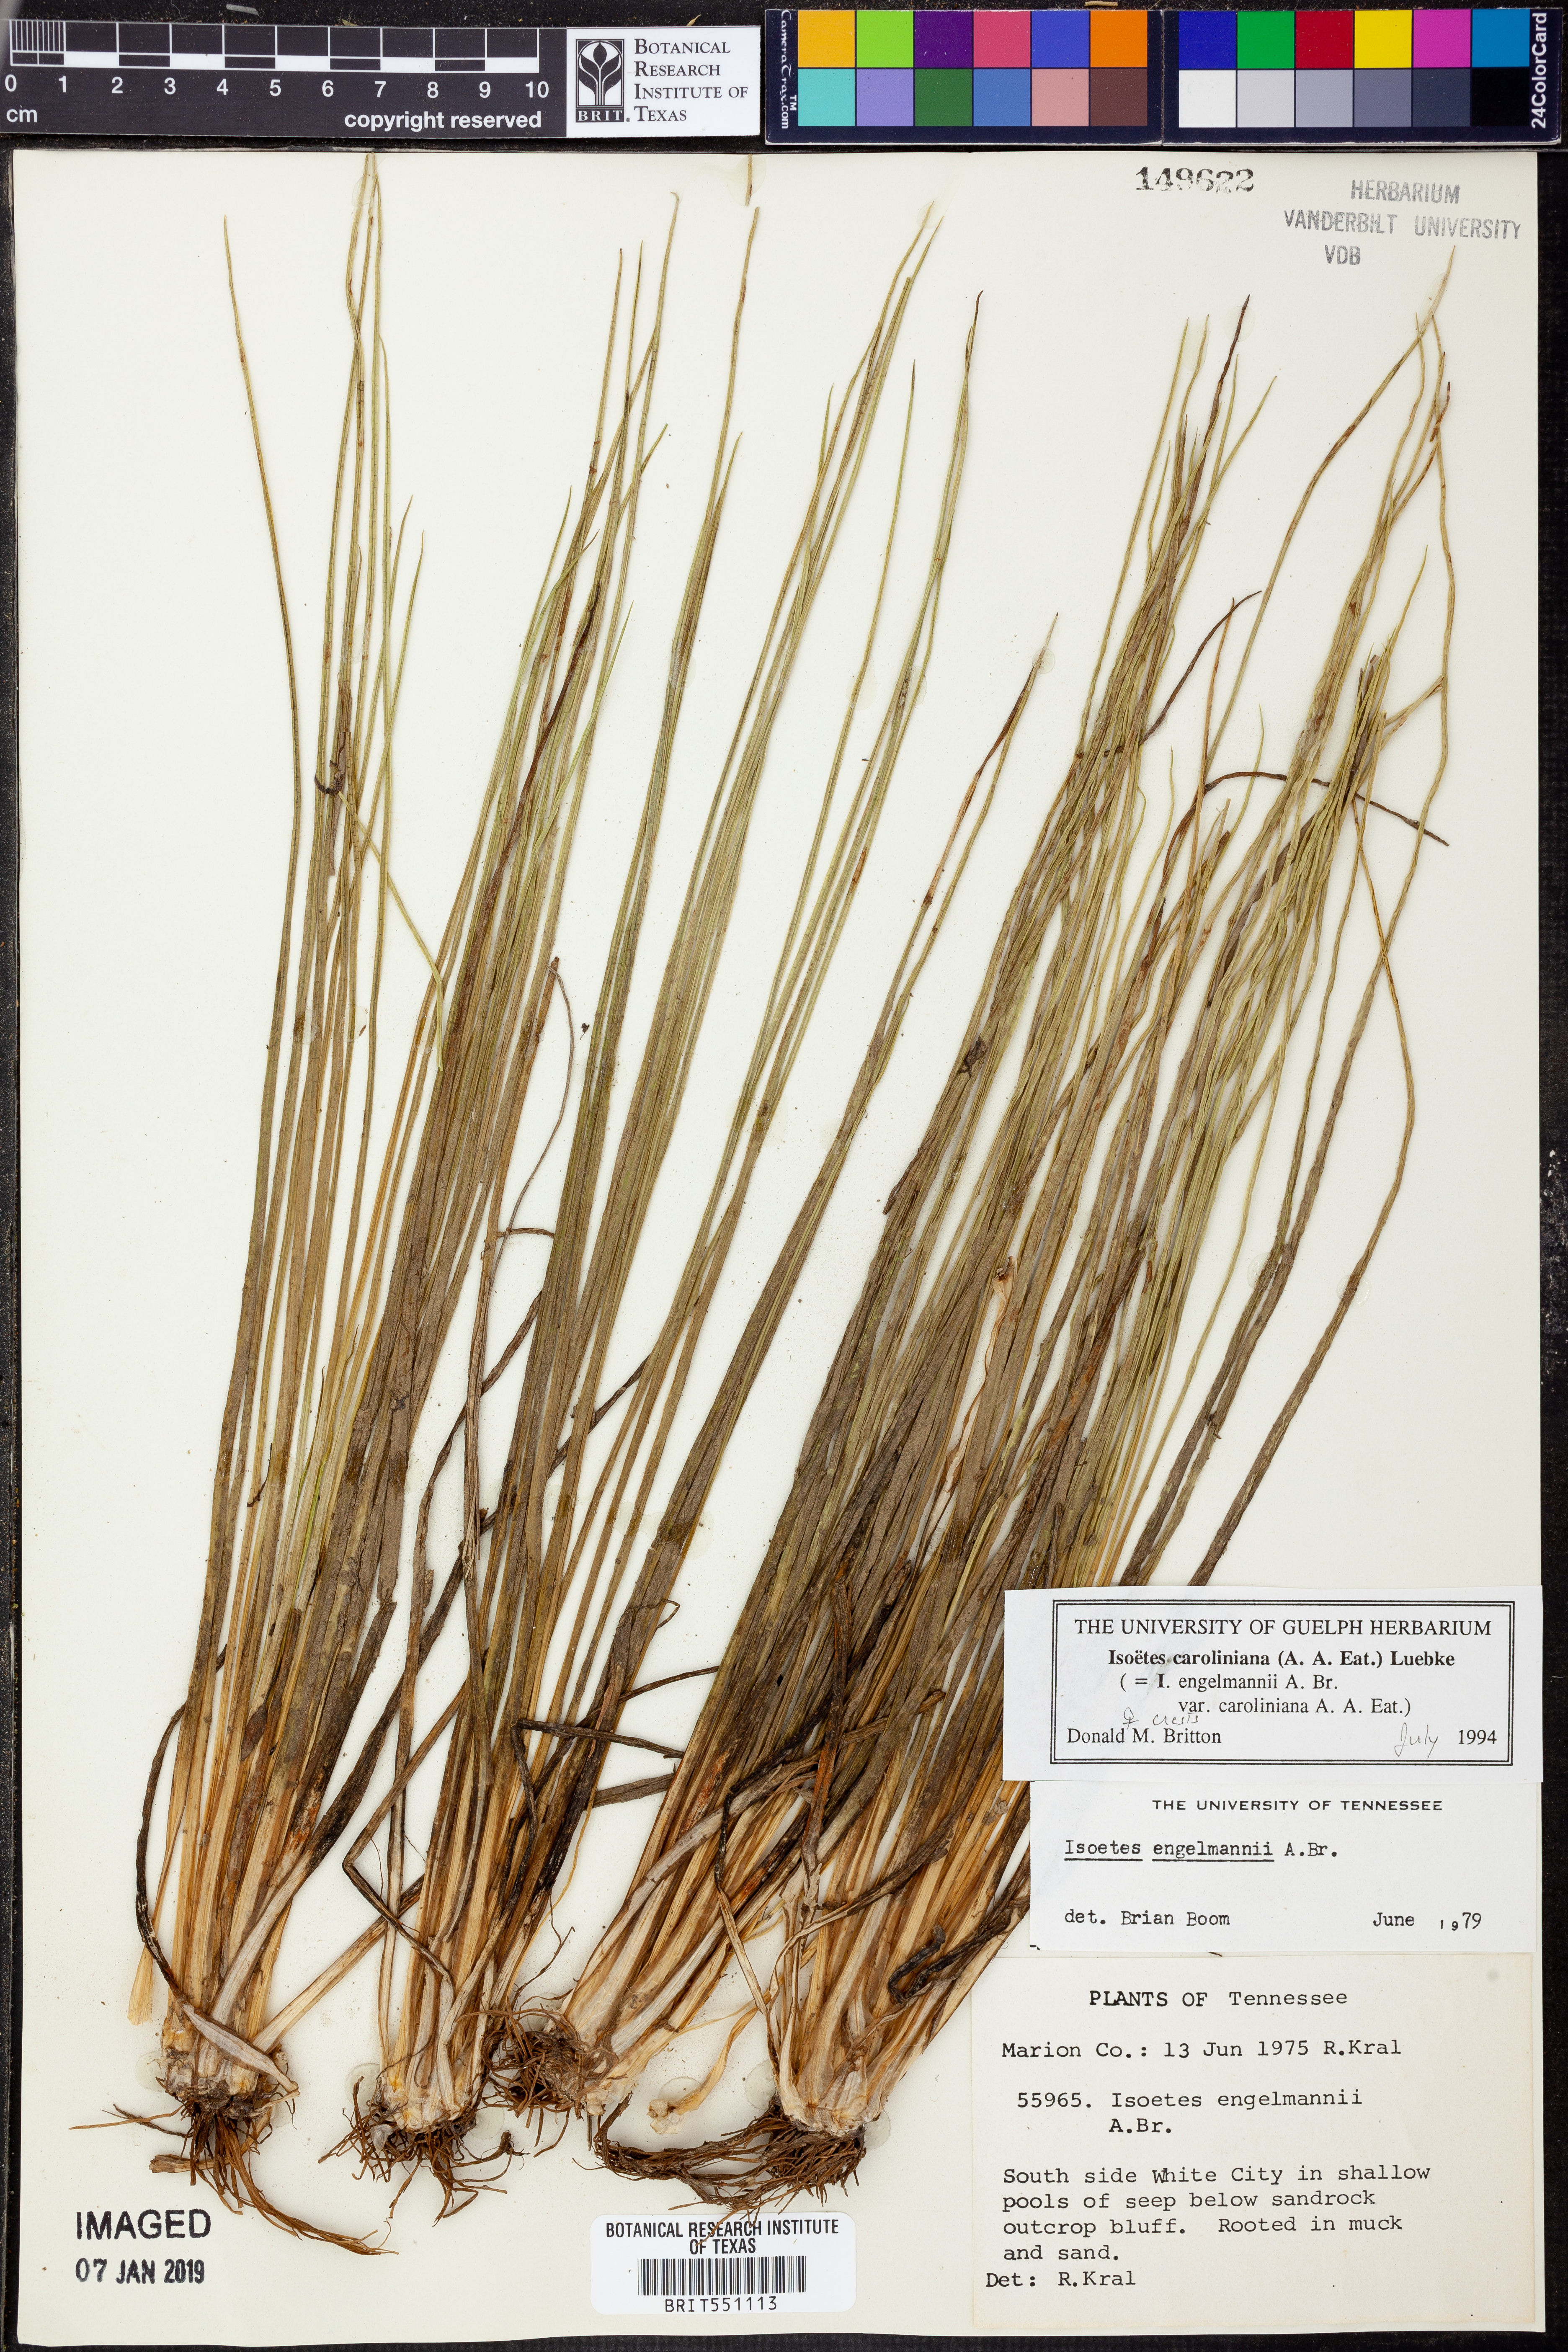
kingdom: Plantae
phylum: Tracheophyta
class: Lycopodiopsida
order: Isoetales
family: Isoetaceae
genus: Isoetes
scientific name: Isoetes caroliniana
